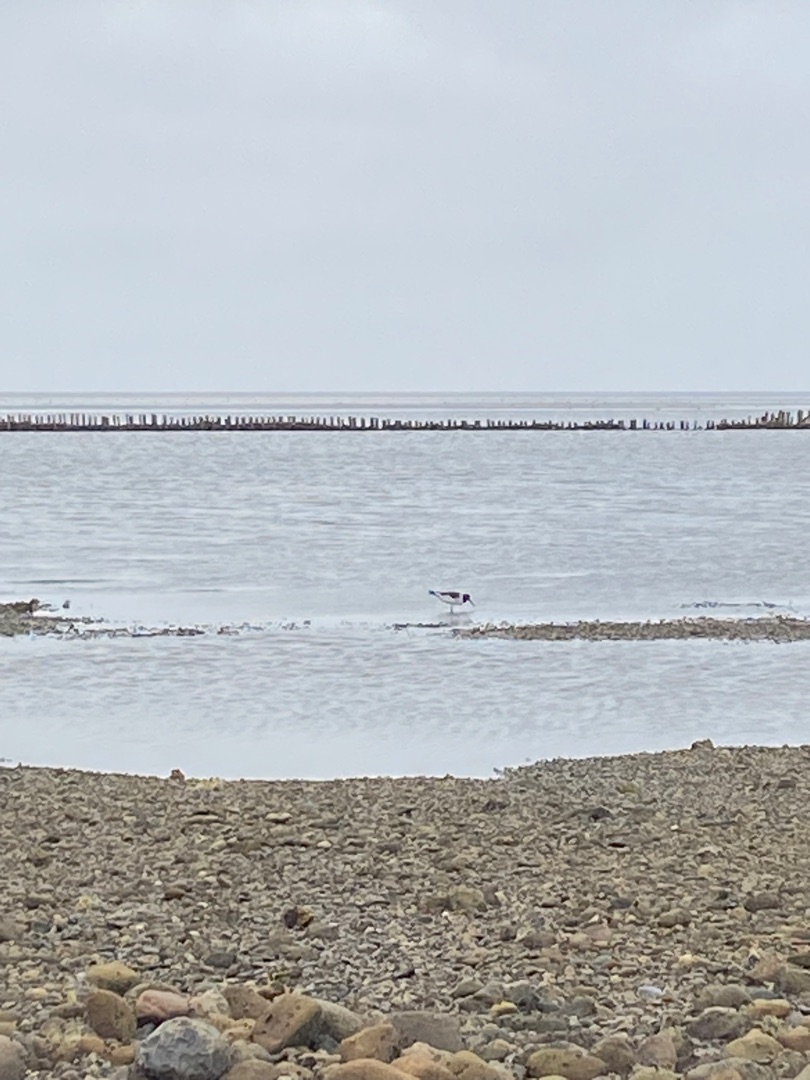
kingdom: Animalia
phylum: Chordata
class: Aves
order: Charadriiformes
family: Haematopodidae
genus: Haematopus
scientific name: Haematopus ostralegus
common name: Strandskade
